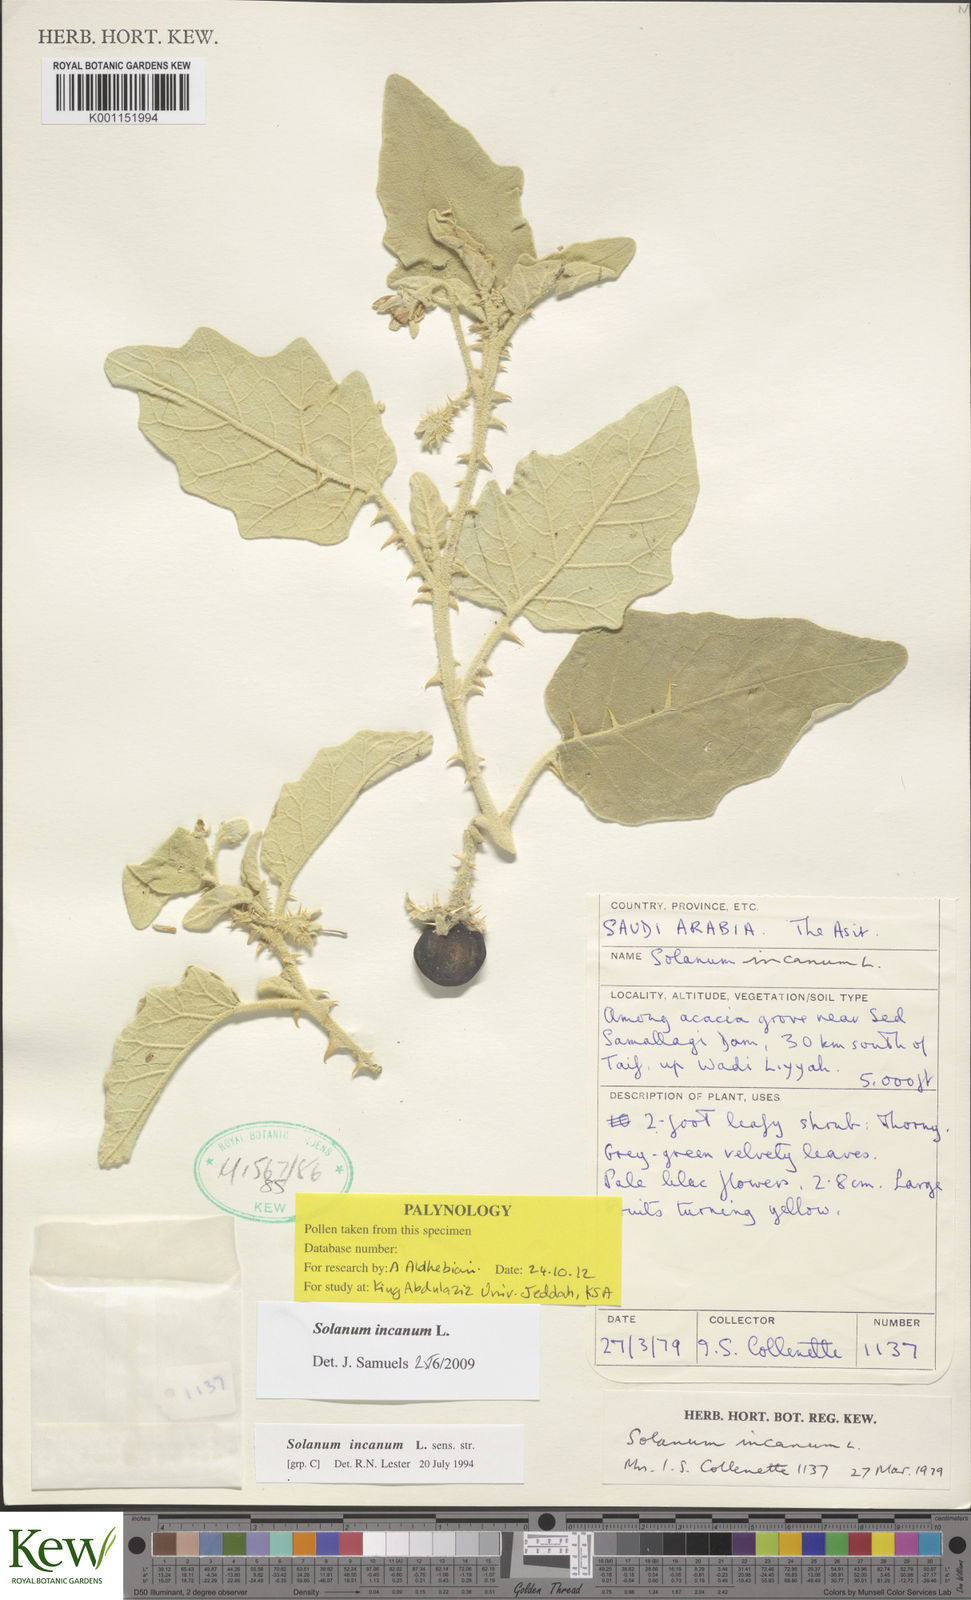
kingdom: Plantae
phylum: Tracheophyta
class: Magnoliopsida
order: Solanales
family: Solanaceae
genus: Solanum
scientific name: Solanum incanum
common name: Bitter apple
